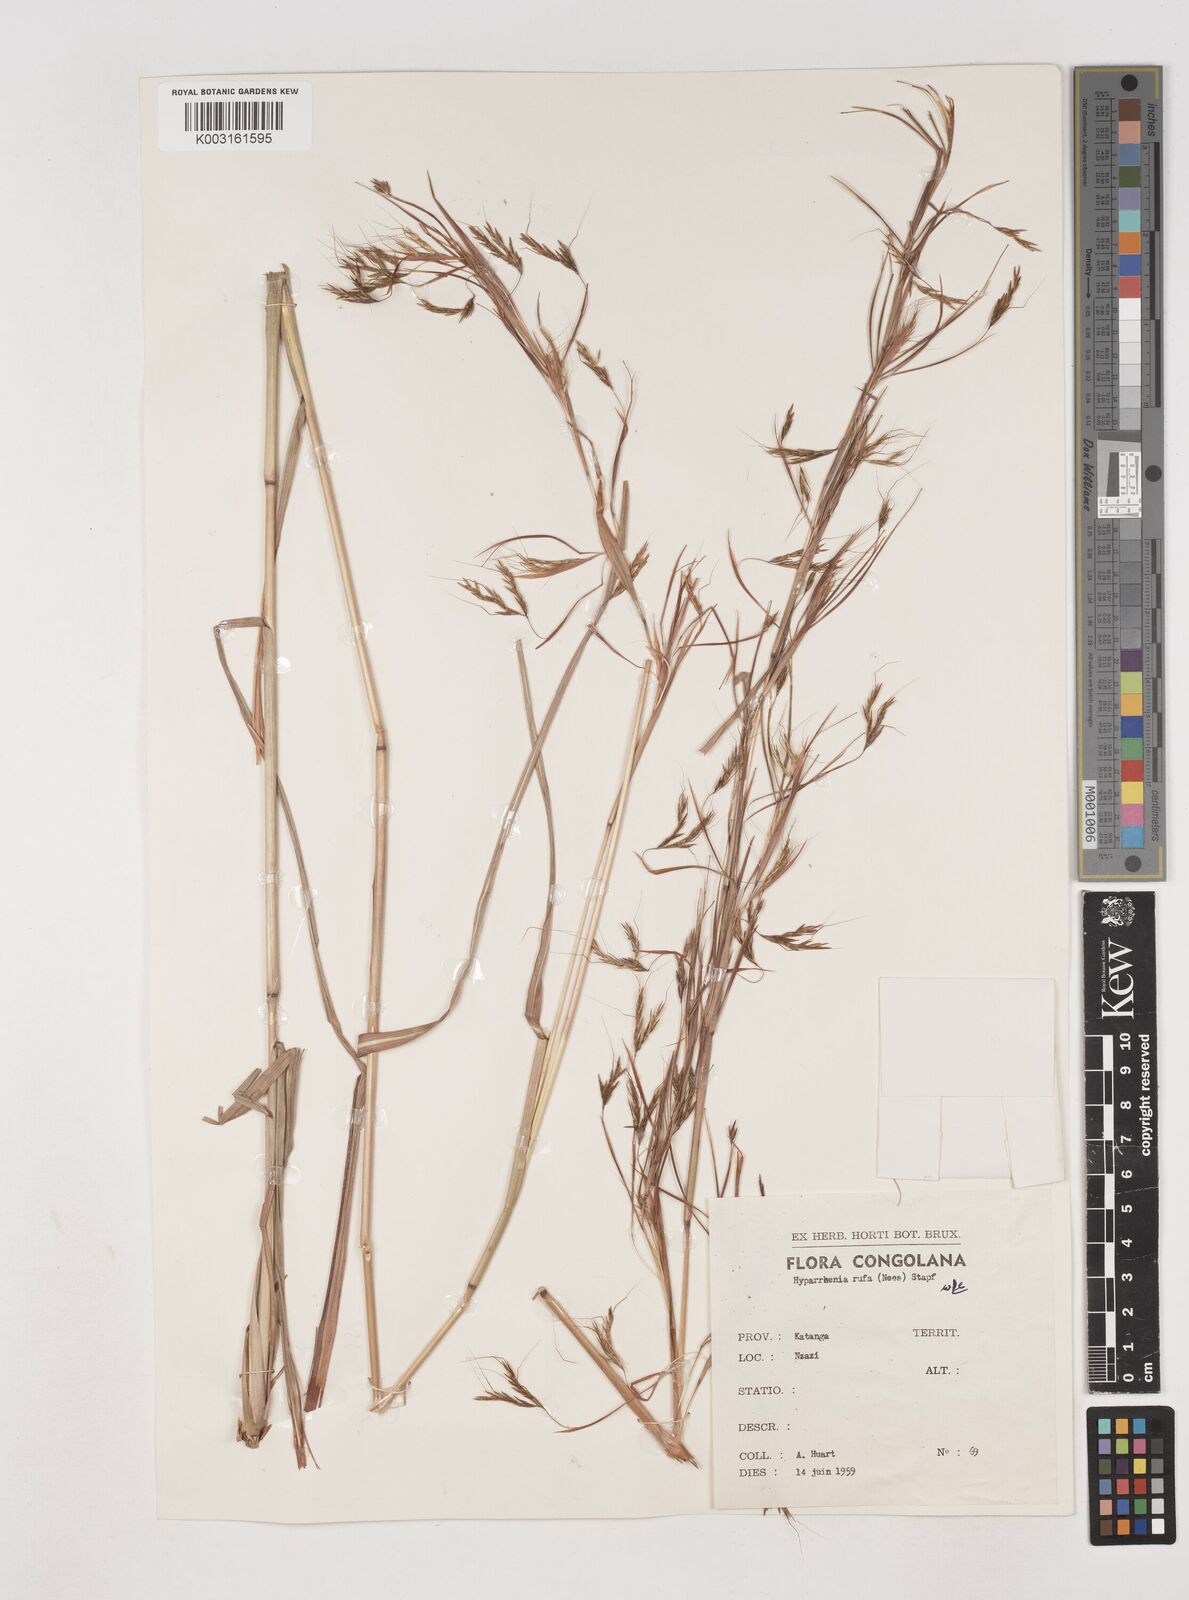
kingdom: Plantae
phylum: Tracheophyta
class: Liliopsida
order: Poales
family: Poaceae
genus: Hyparrhenia
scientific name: Hyparrhenia rufa
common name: Jaraguagrass
